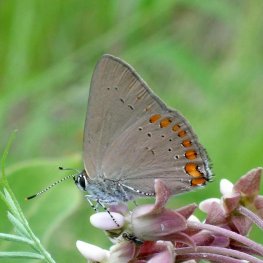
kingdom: Animalia
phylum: Arthropoda
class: Insecta
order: Lepidoptera
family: Lycaenidae
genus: Harkenclenus
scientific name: Harkenclenus titus
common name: Coral Hairstreak
